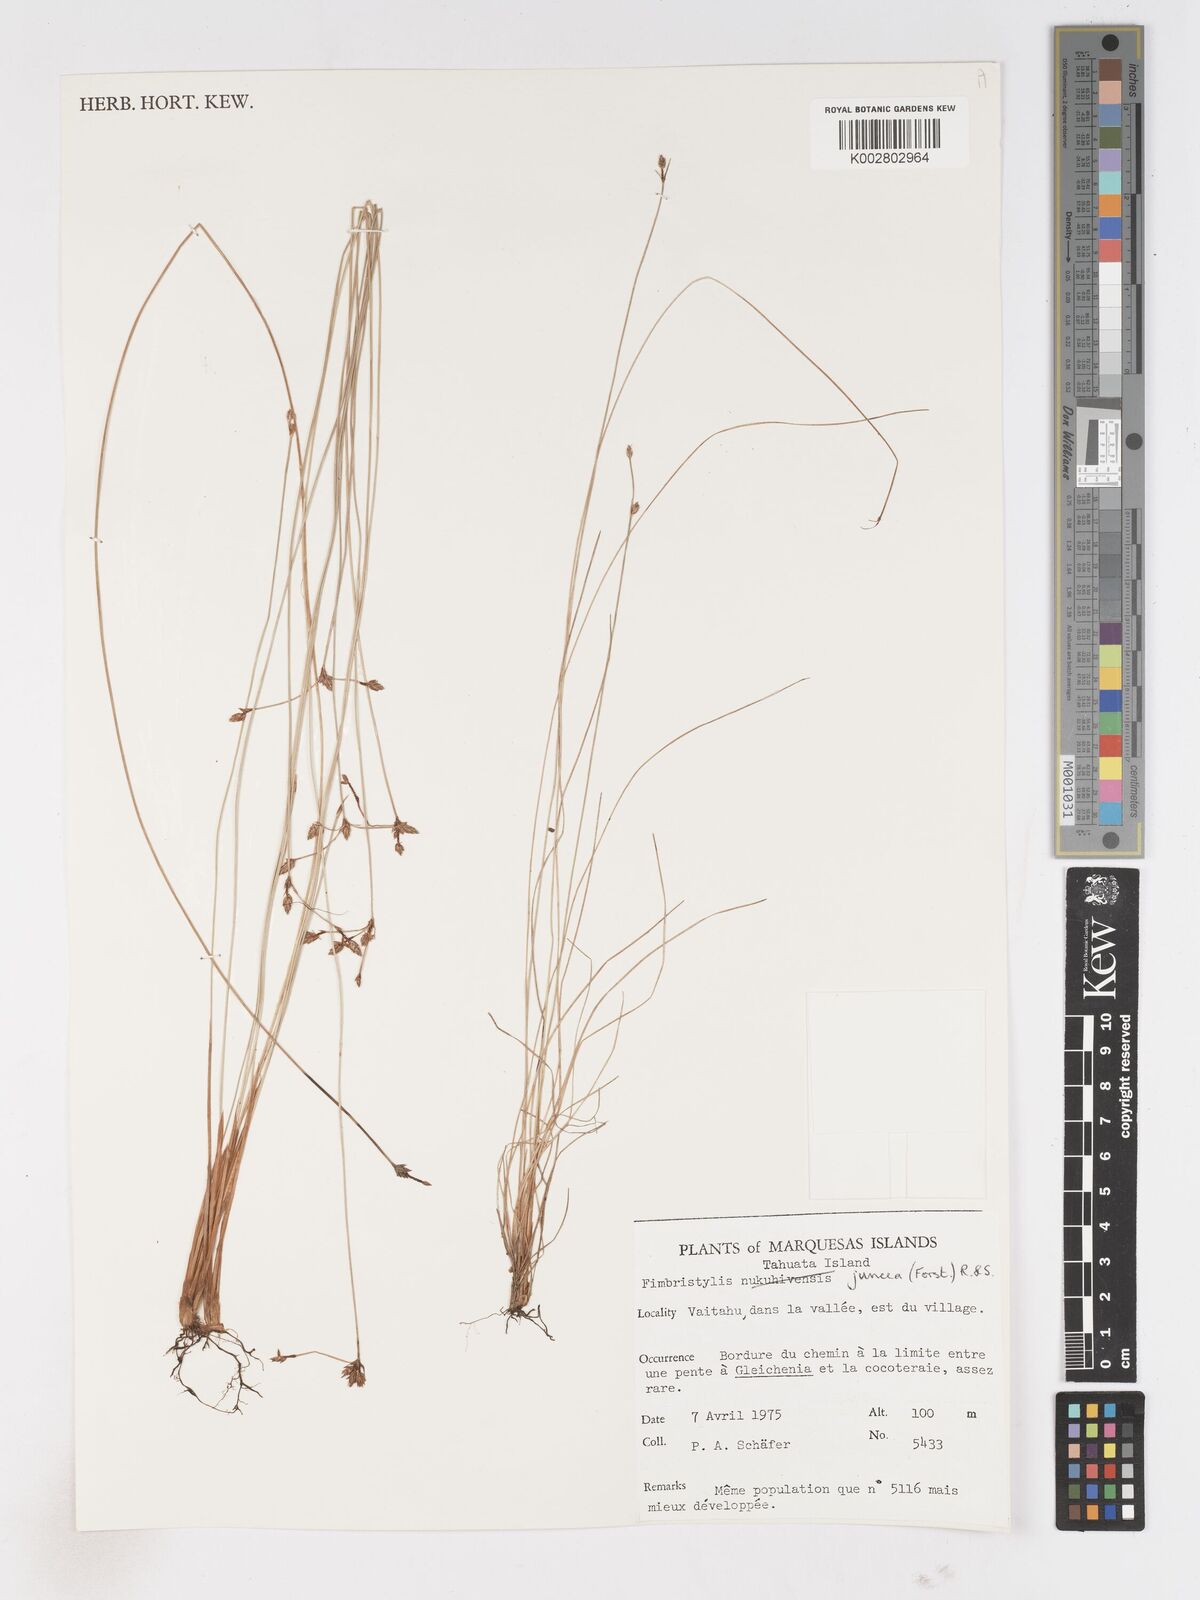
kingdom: Plantae
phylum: Tracheophyta
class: Liliopsida
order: Poales
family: Cyperaceae
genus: Fimbristylis
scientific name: Fimbristylis juncea
